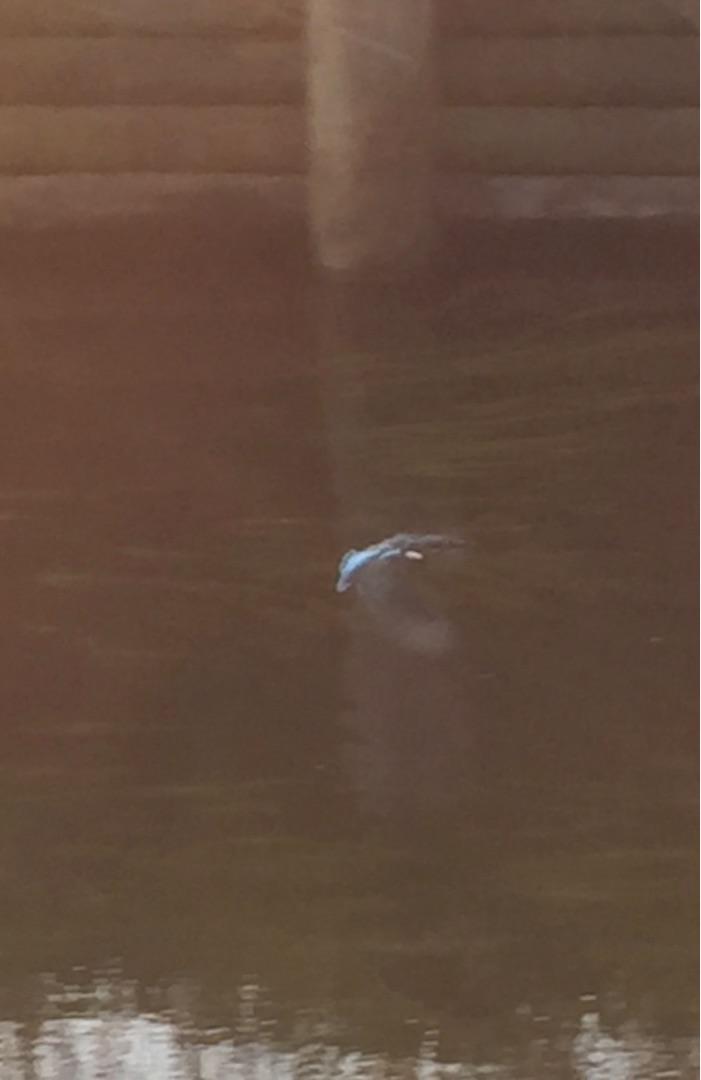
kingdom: Animalia
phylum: Chordata
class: Aves
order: Coraciiformes
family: Alcedinidae
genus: Alcedo
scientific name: Alcedo atthis
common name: Isfugl
